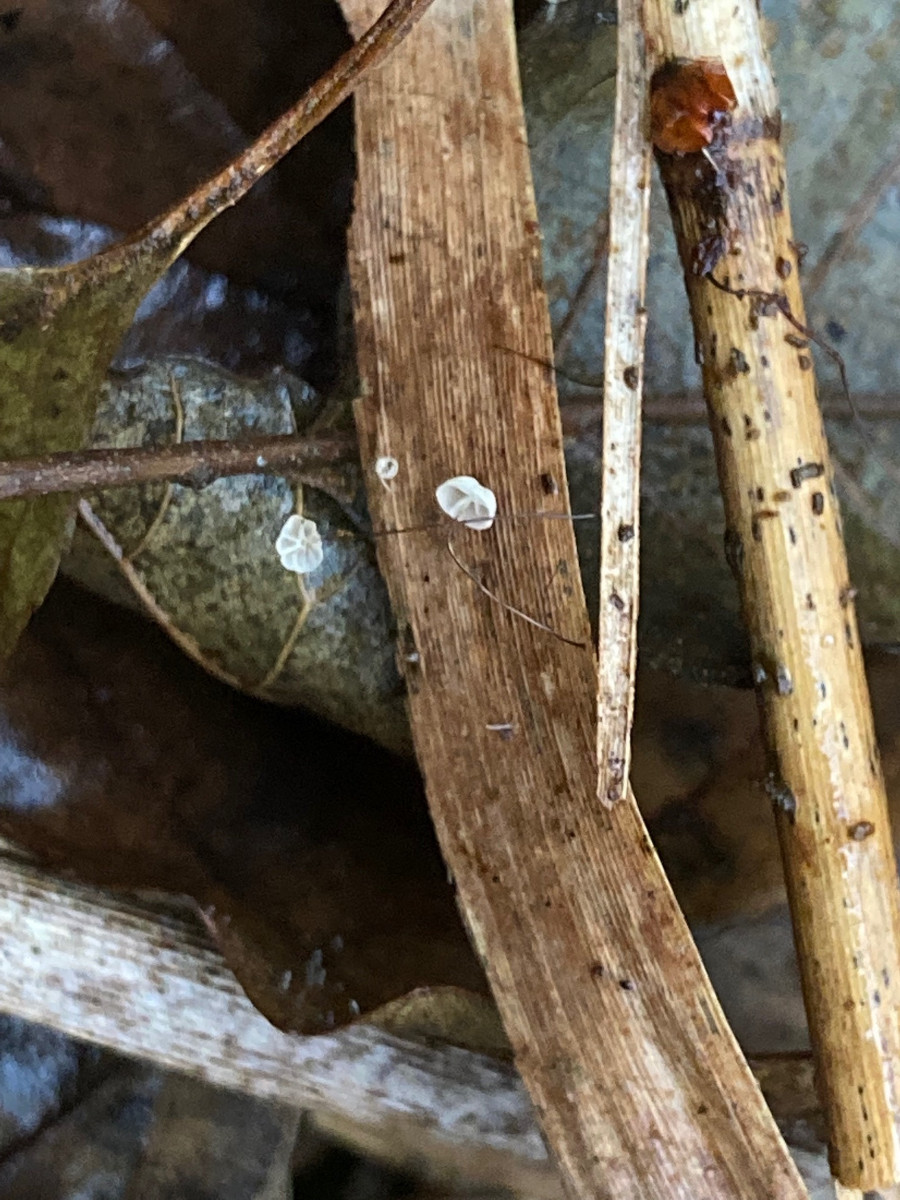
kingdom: Fungi
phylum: Basidiomycota
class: Agaricomycetes
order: Agaricales
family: Marasmiaceae
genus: Marasmius
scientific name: Marasmius limosus
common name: kær-bruskhat
